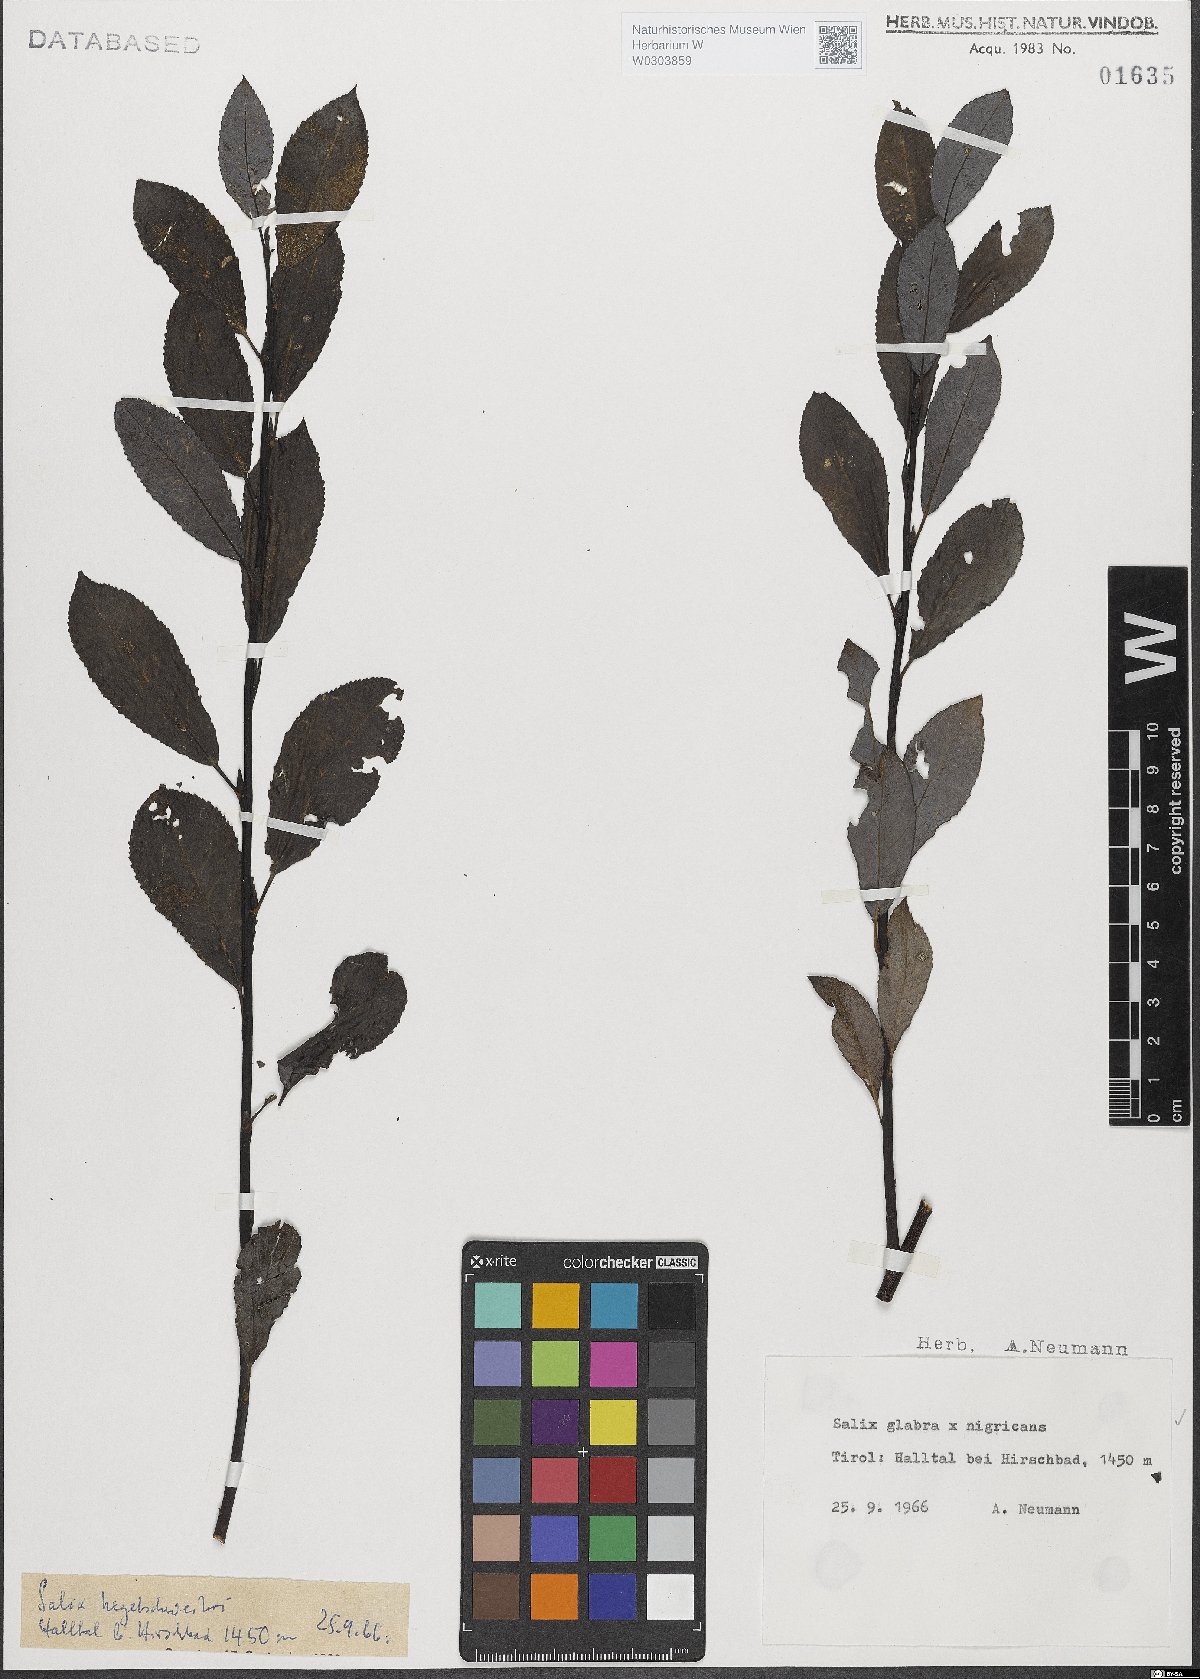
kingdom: Plantae
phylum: Tracheophyta
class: Magnoliopsida
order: Malpighiales
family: Salicaceae
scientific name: Salicaceae
